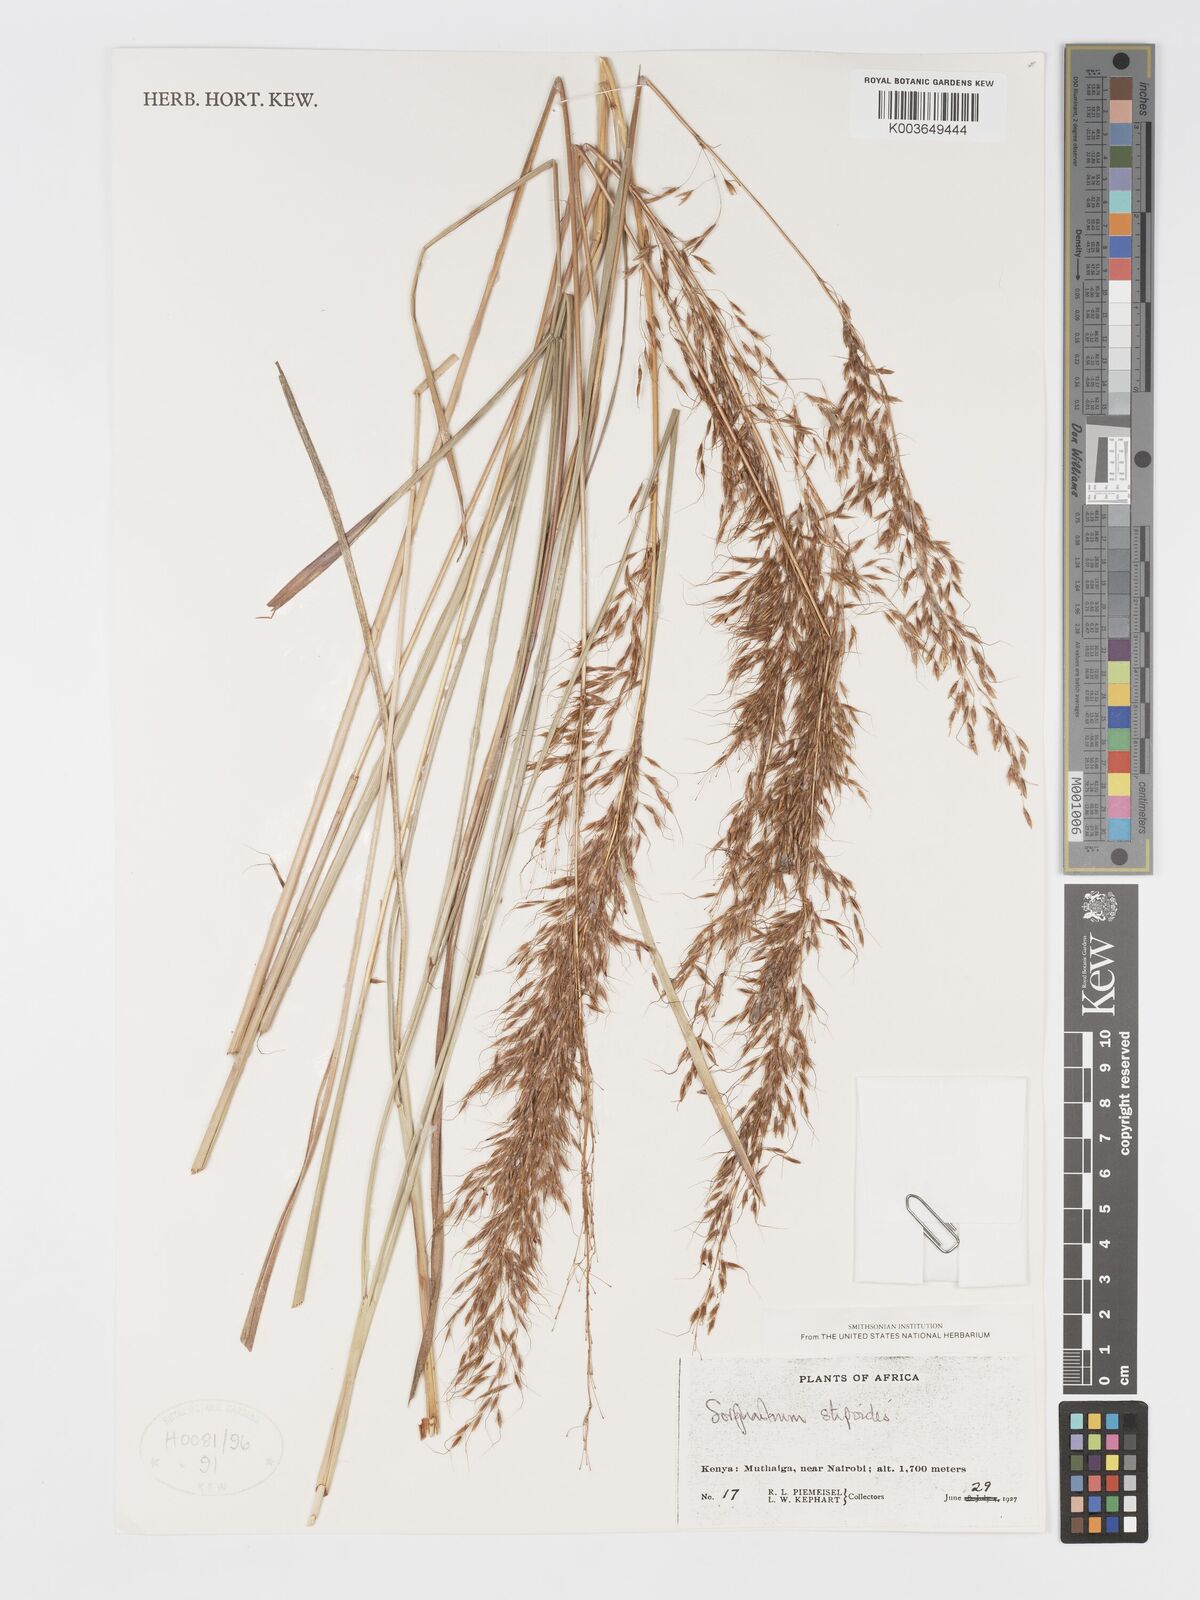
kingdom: Plantae
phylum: Tracheophyta
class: Liliopsida
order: Poales
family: Poaceae
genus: Sorghastrum
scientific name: Sorghastrum stipoides
